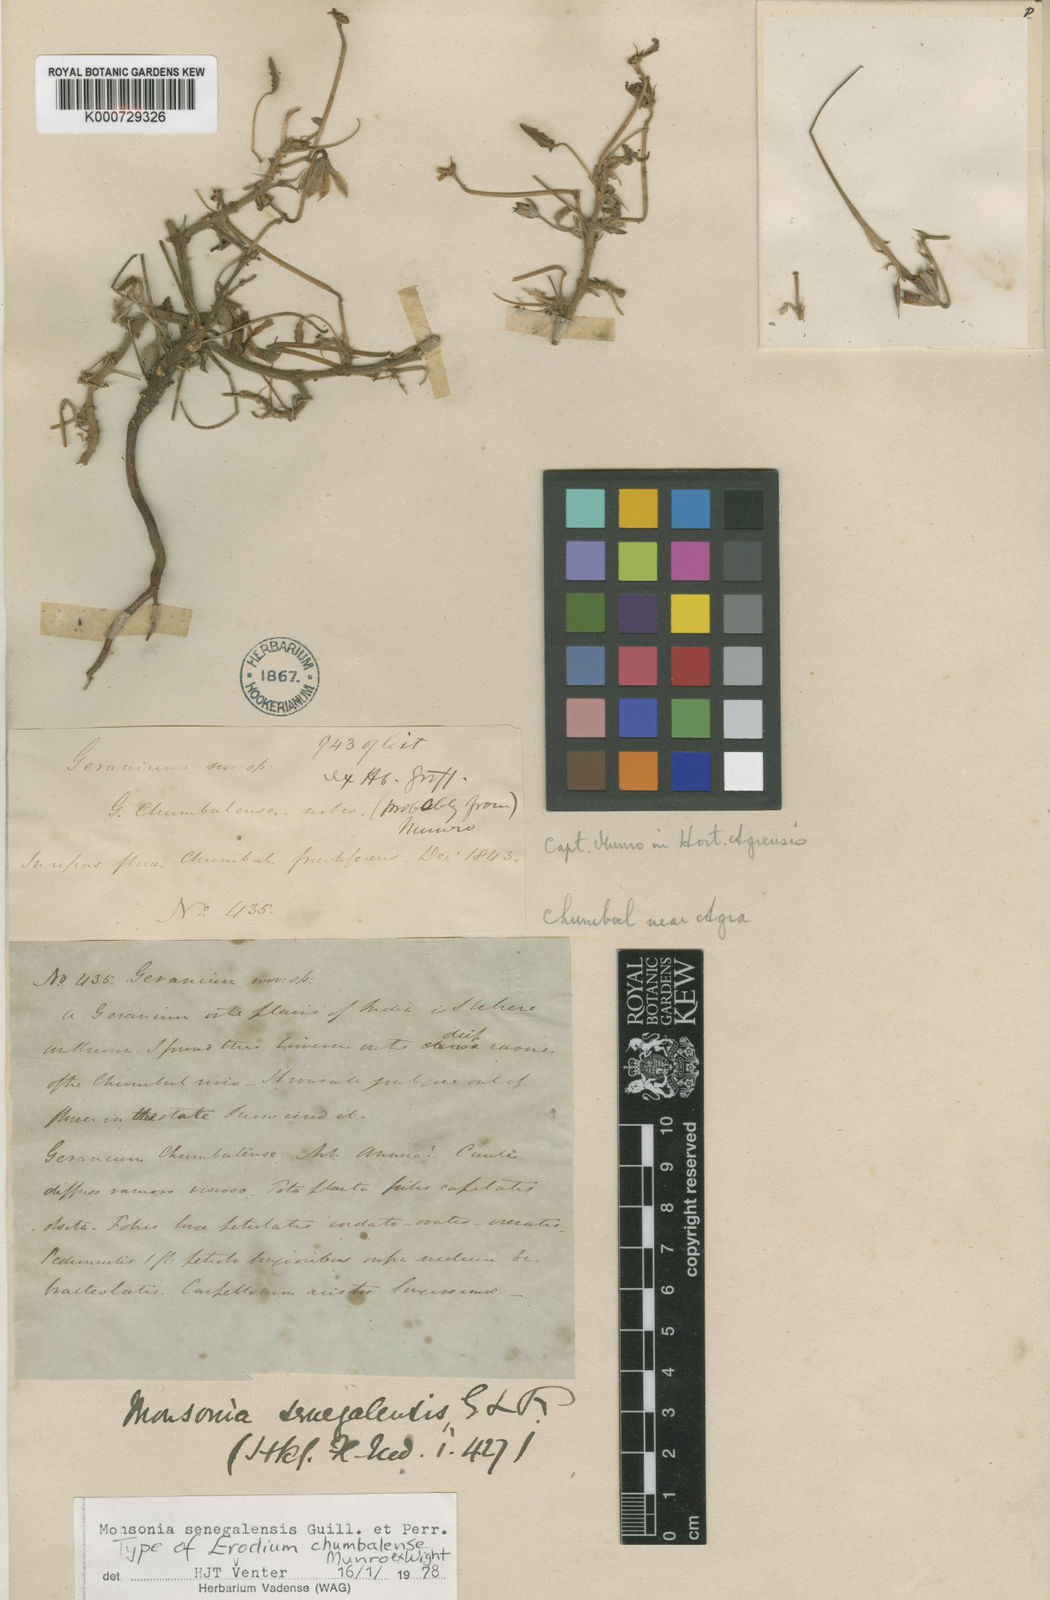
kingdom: Plantae
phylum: Tracheophyta
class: Magnoliopsida
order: Geraniales
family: Geraniaceae
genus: Monsonia
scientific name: Monsonia senegalensis
